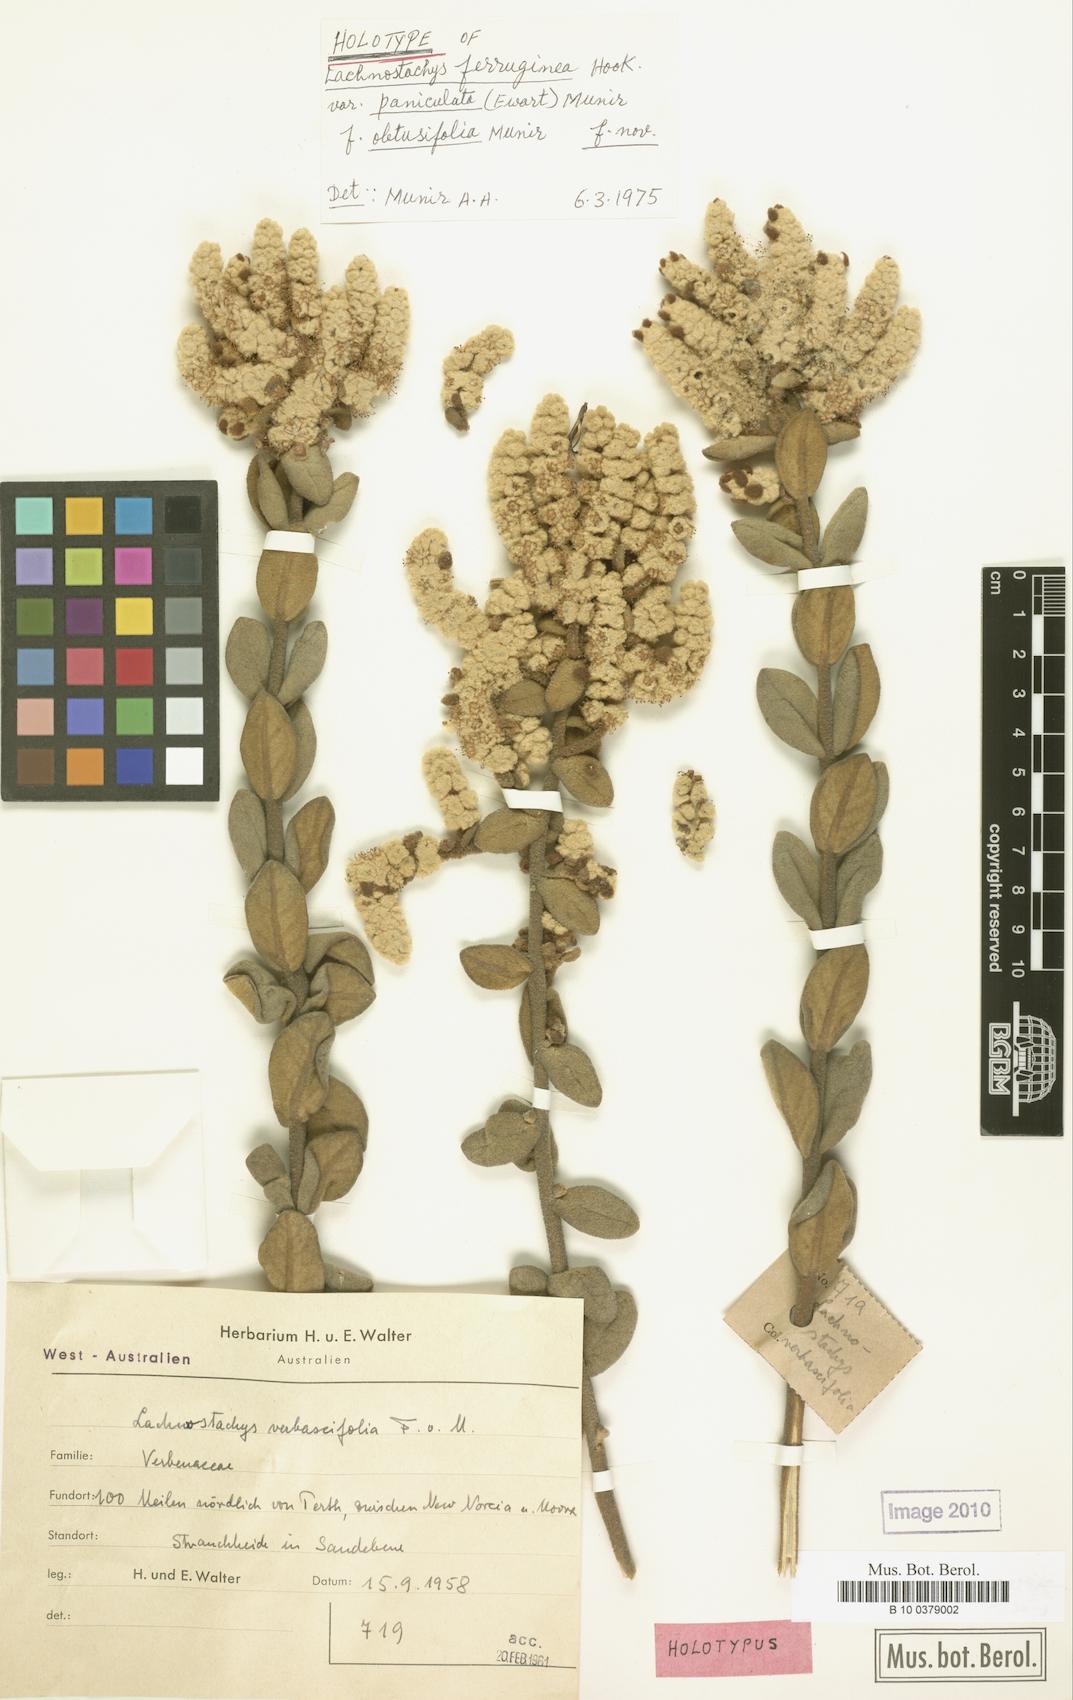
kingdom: Plantae
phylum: Tracheophyta
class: Magnoliopsida
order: Lamiales
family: Lamiaceae
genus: Lachnostachys
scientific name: Lachnostachys ferruginea
